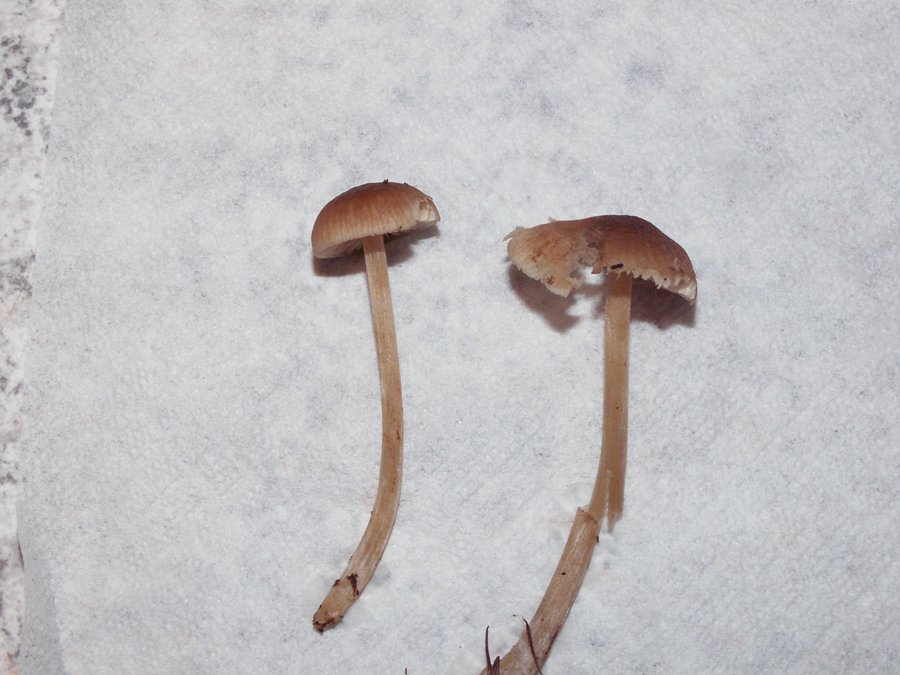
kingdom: Fungi
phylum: Basidiomycota
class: Agaricomycetes
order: Agaricales
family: Entolomataceae
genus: Entoloma
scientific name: Entoloma cetratum
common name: voks-rødblad
